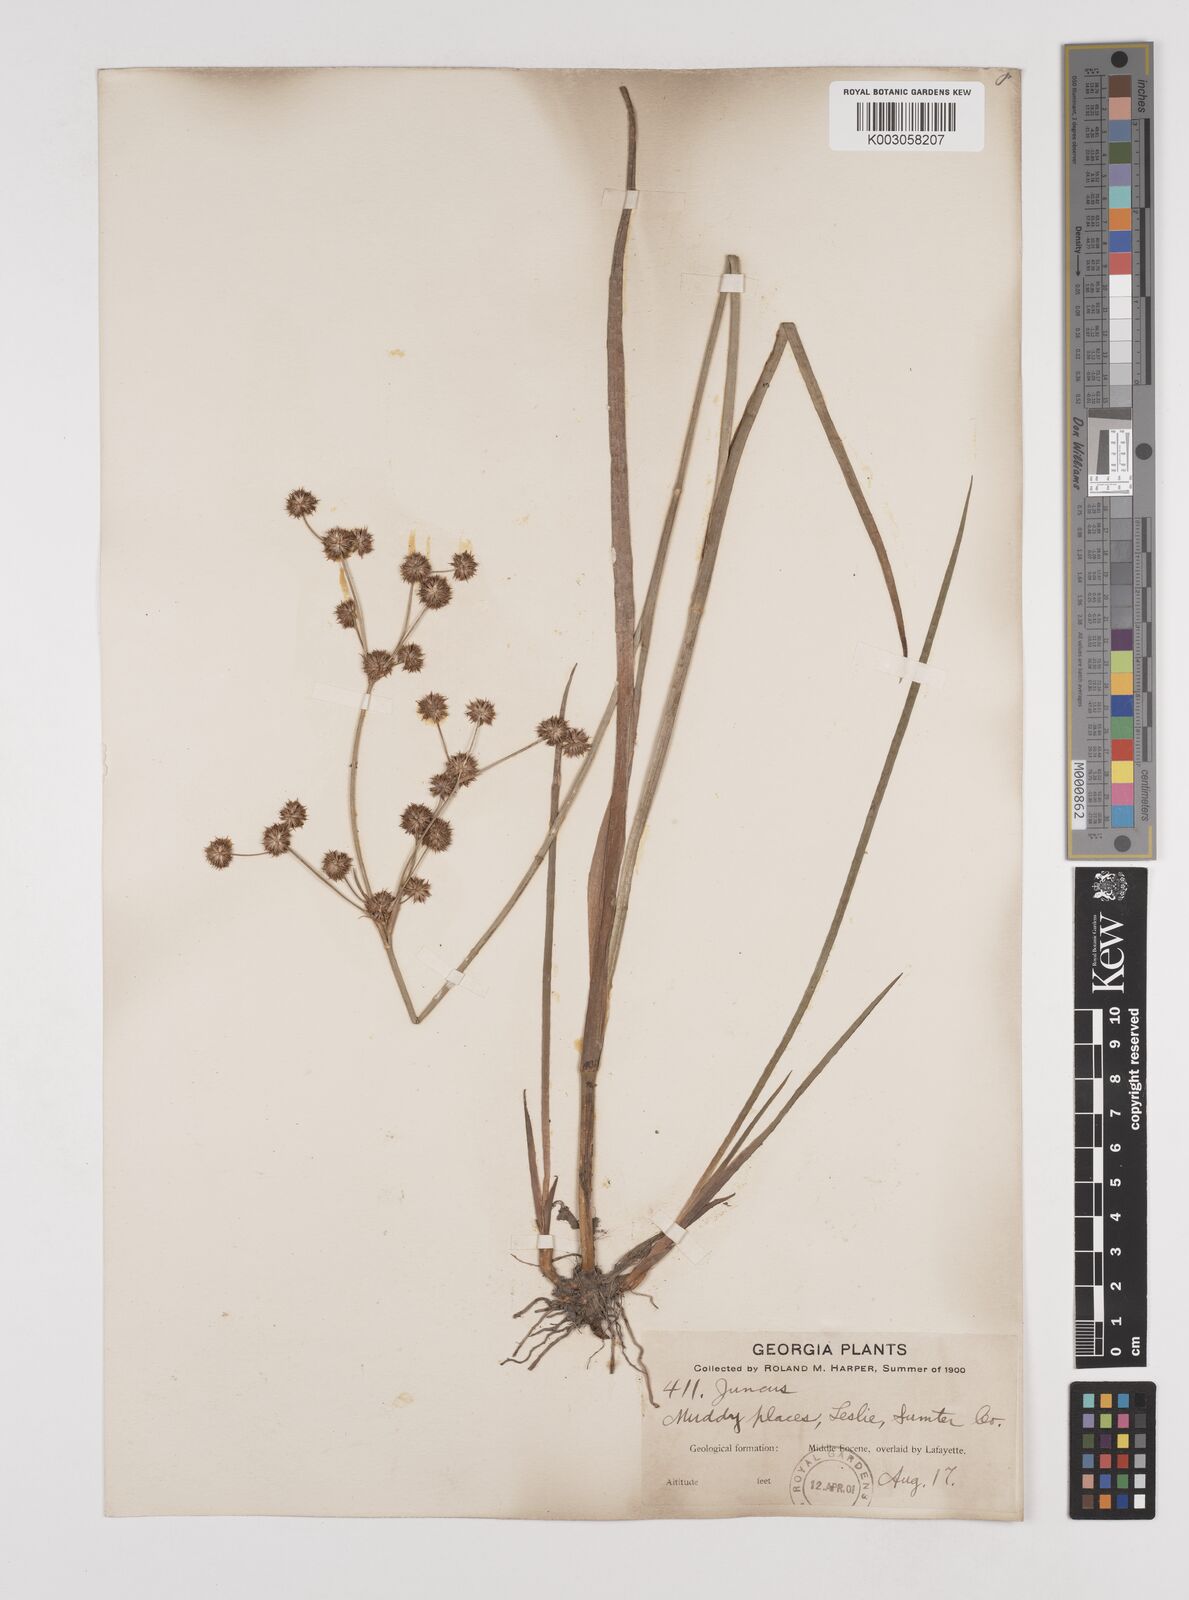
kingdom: Plantae
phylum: Tracheophyta
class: Liliopsida
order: Poales
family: Juncaceae
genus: Juncus
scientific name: Juncus
